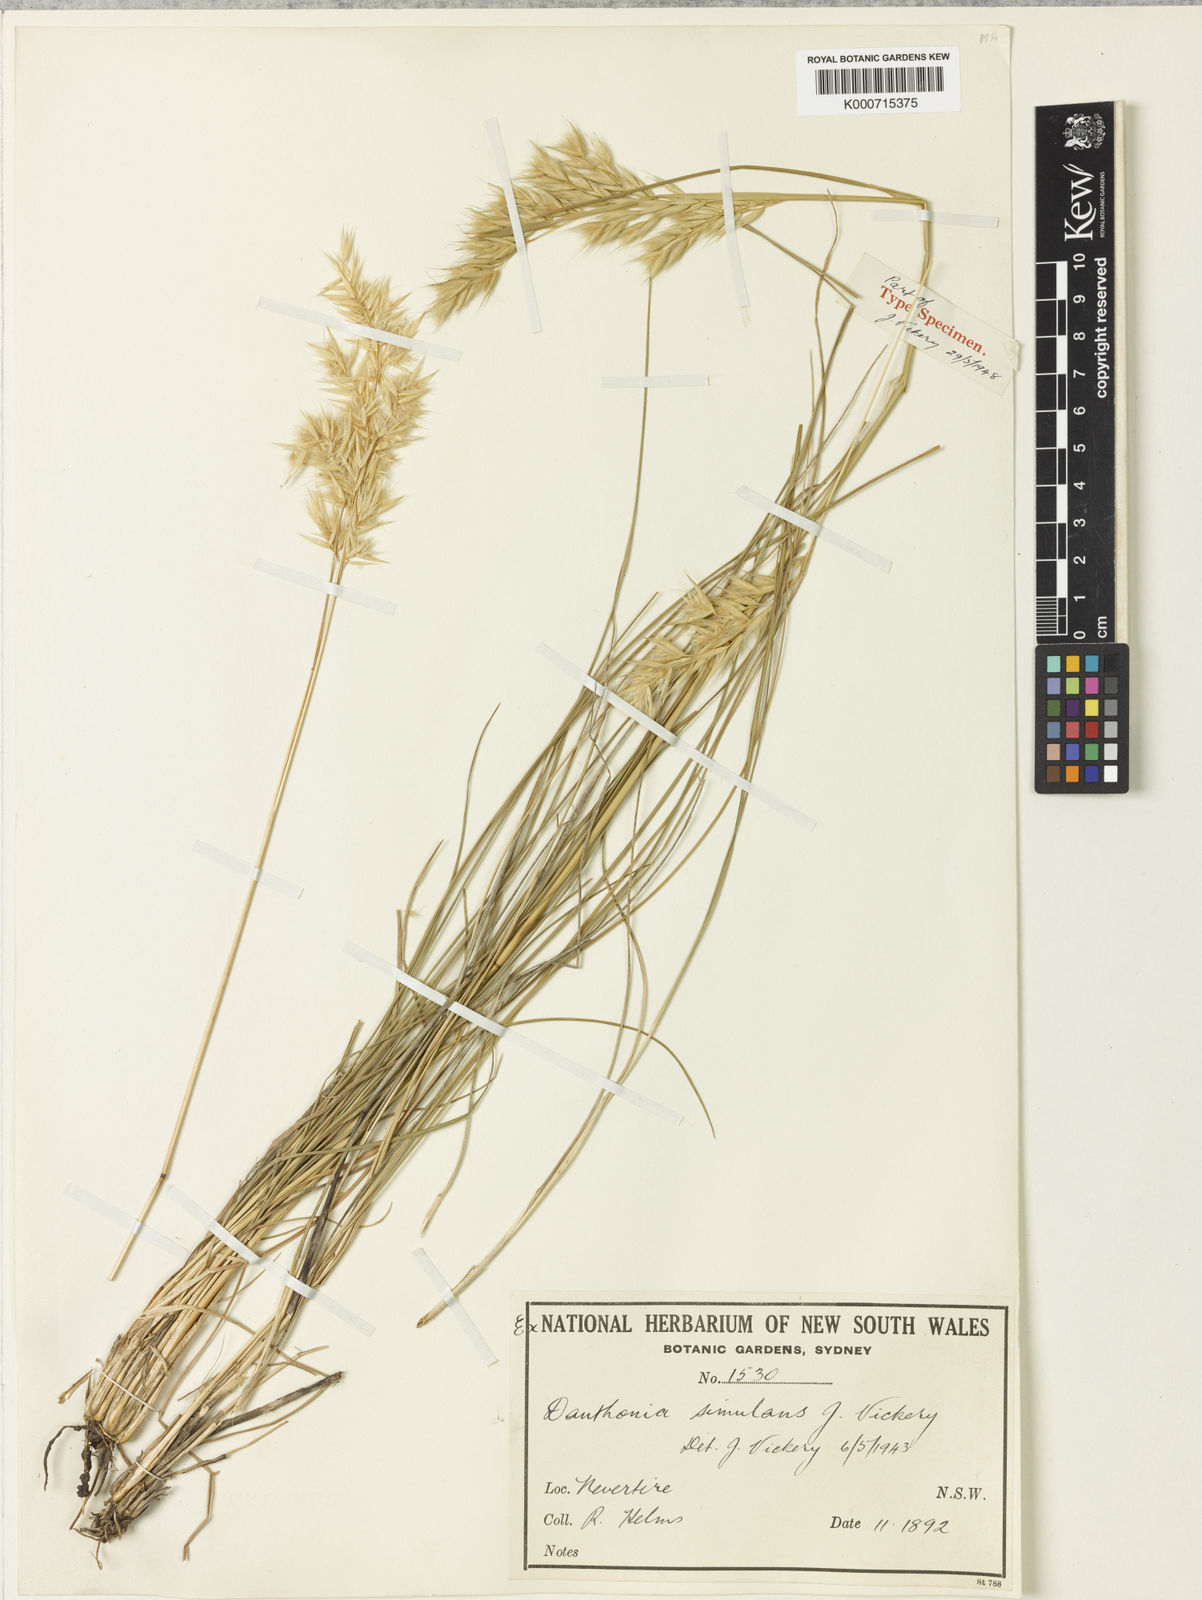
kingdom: Plantae
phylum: Tracheophyta
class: Liliopsida
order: Poales
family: Poaceae
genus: Rytidosperma
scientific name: Rytidosperma bipartitum
